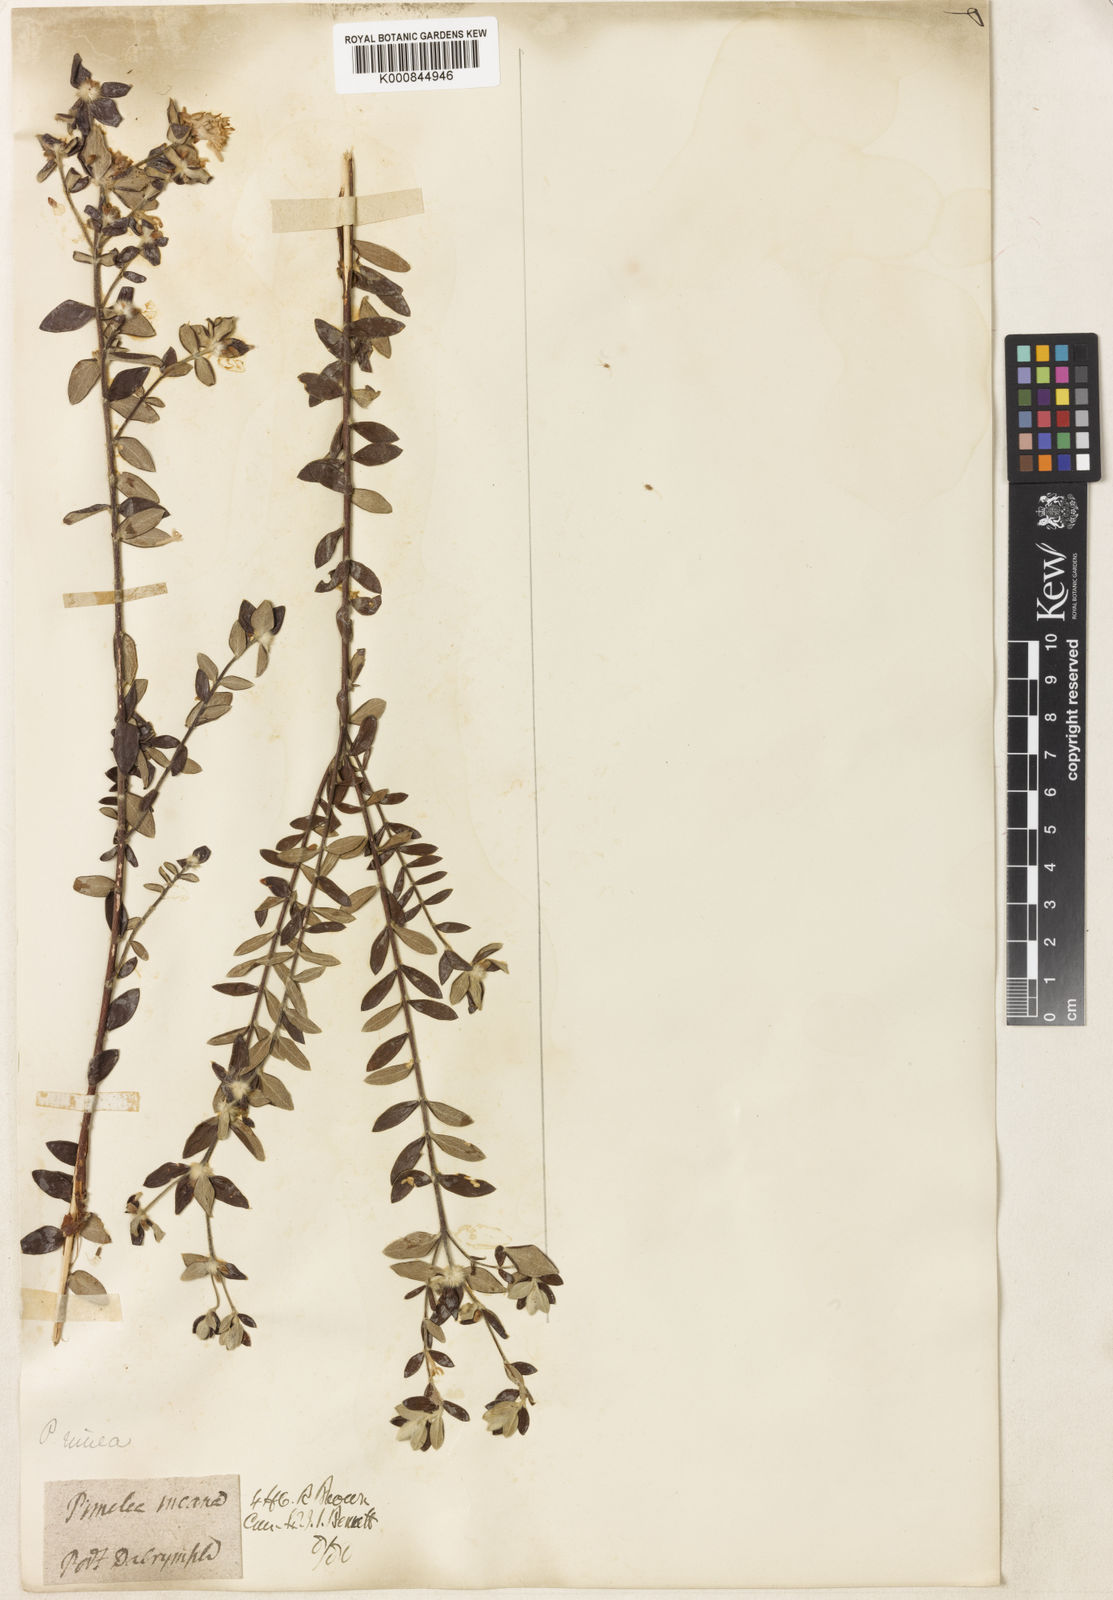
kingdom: Plantae
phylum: Tracheophyta
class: Magnoliopsida
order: Malvales
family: Thymelaeaceae
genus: Pimelea
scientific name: Pimelea nivea
